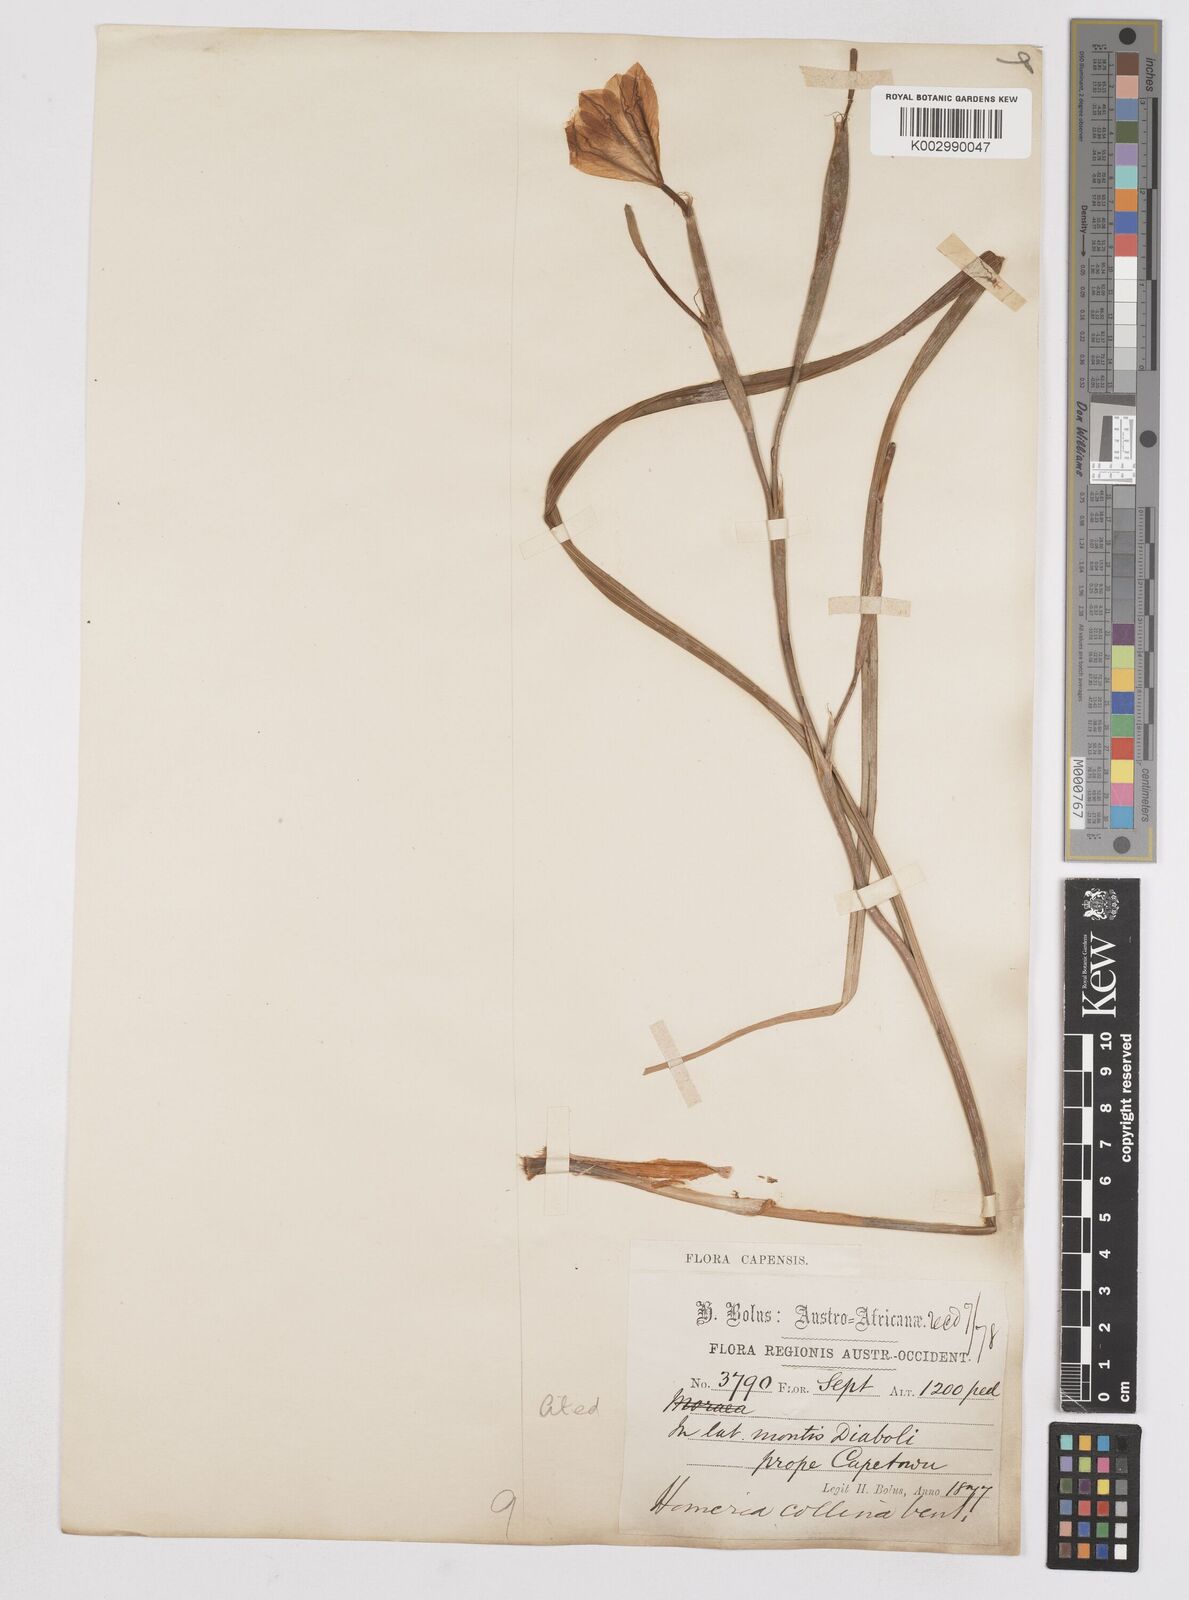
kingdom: Plantae
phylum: Tracheophyta
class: Liliopsida
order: Asparagales
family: Iridaceae
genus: Moraea
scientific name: Moraea ochroleuca
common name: Red tulp
